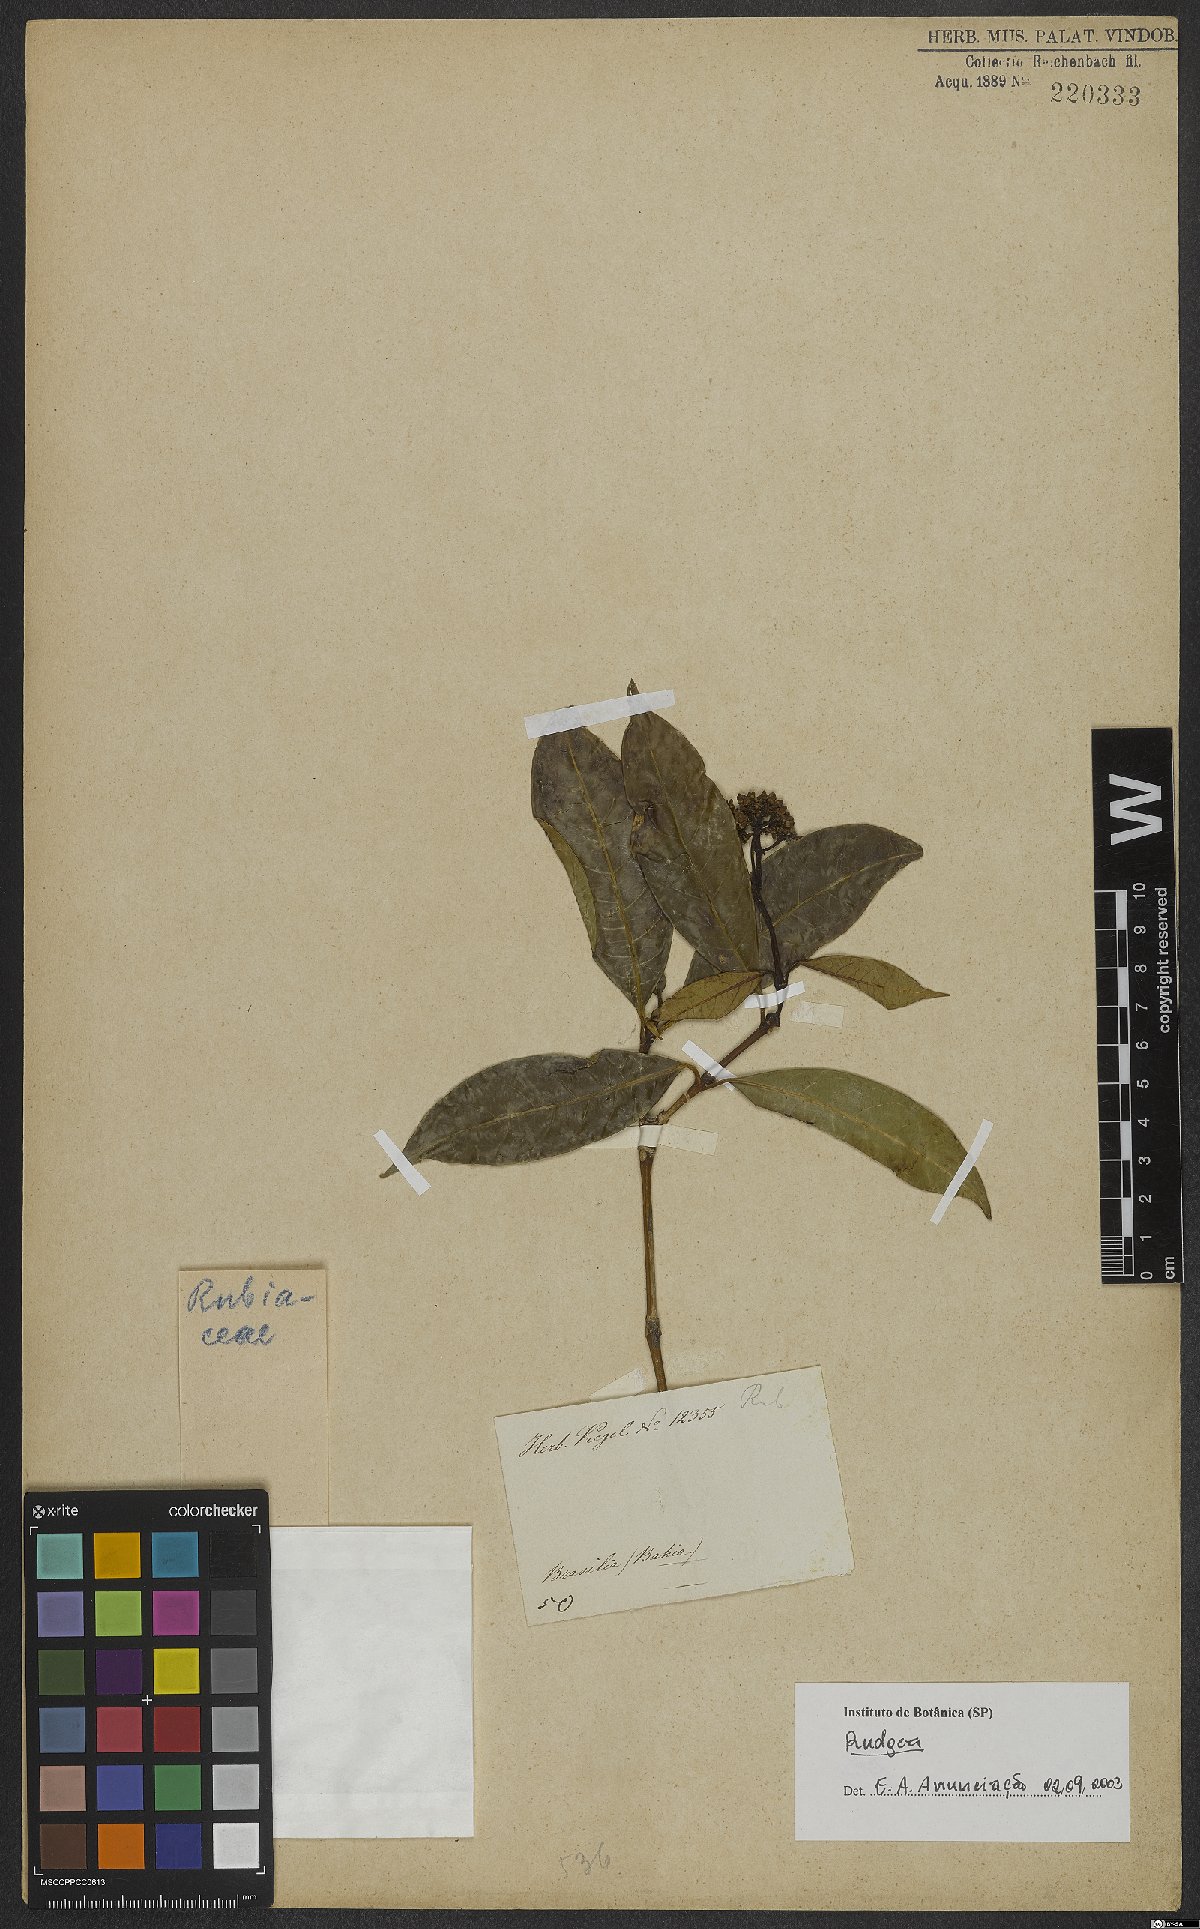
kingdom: Plantae
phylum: Tracheophyta
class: Magnoliopsida
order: Gentianales
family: Rubiaceae
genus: Rudgea
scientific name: Rudgea
